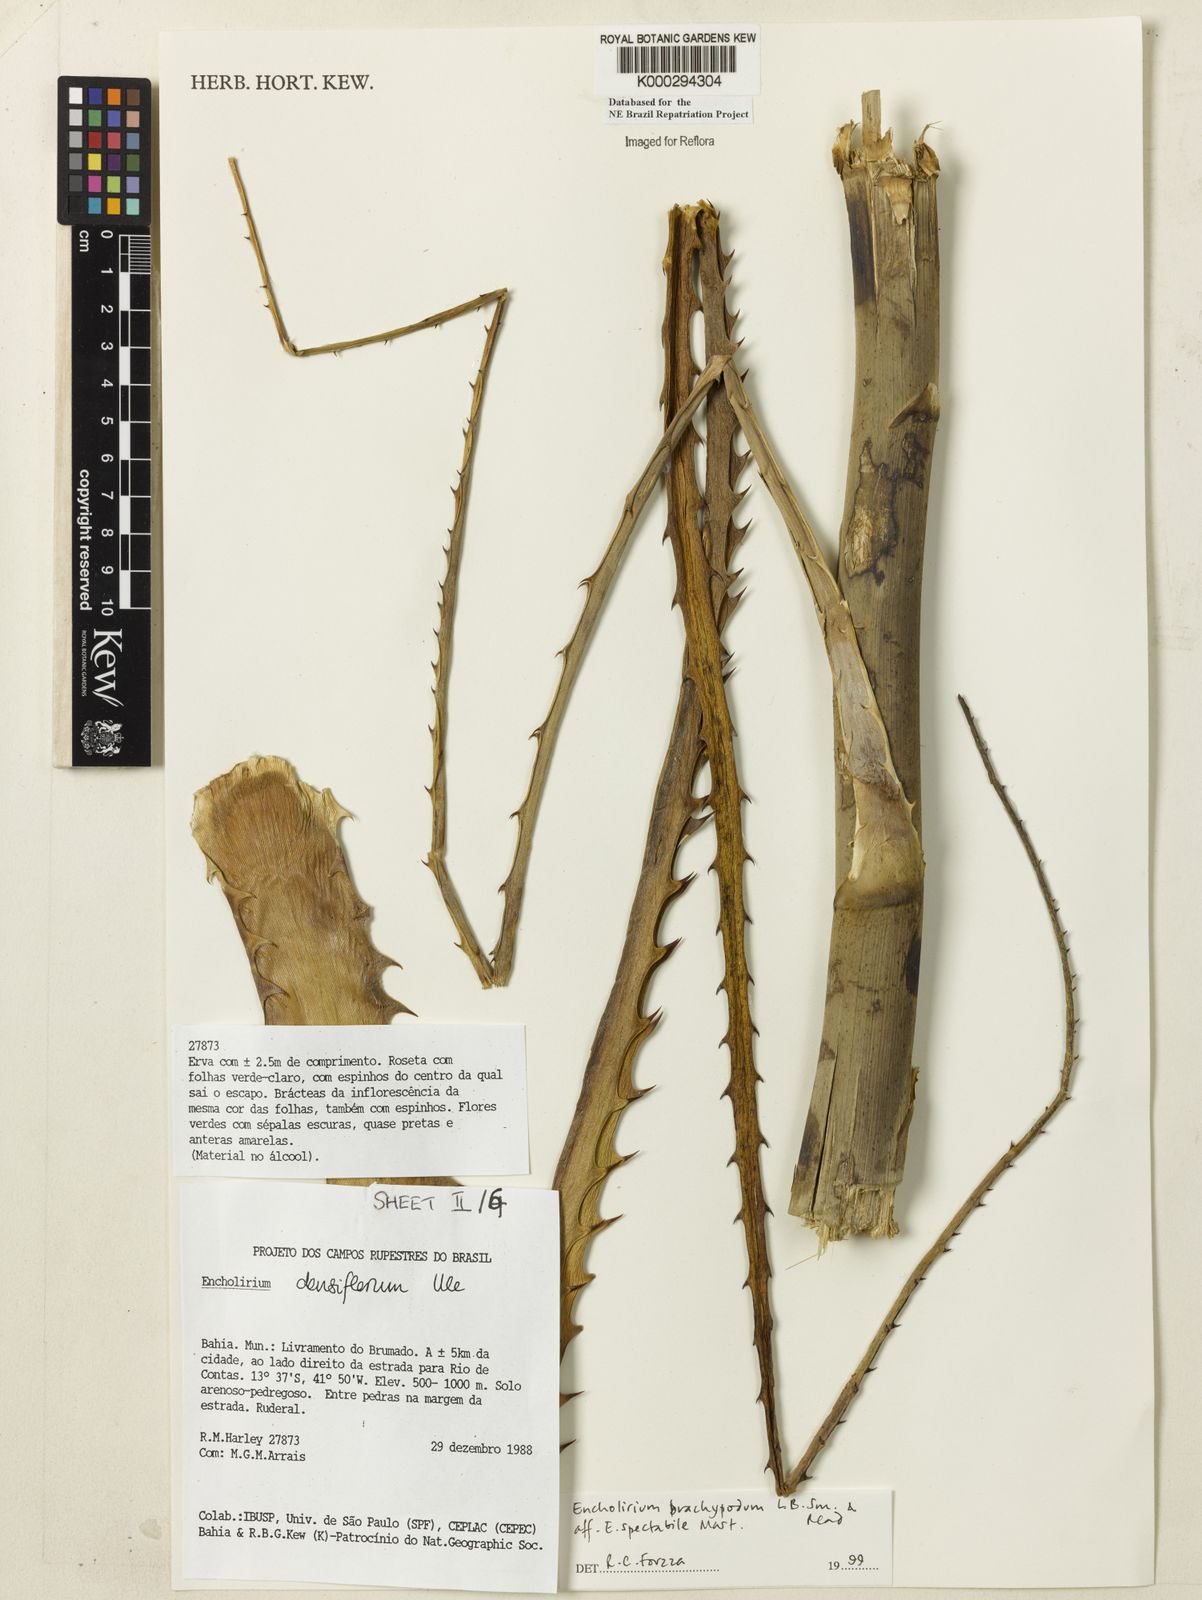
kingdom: Plantae
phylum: Tracheophyta
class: Liliopsida
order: Poales
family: Bromeliaceae
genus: Encholirium
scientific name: Encholirium brachypodum
